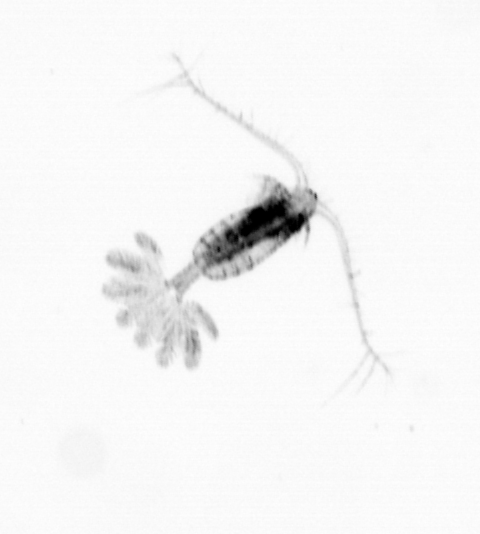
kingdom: Animalia
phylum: Arthropoda
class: Copepoda
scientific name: Copepoda
